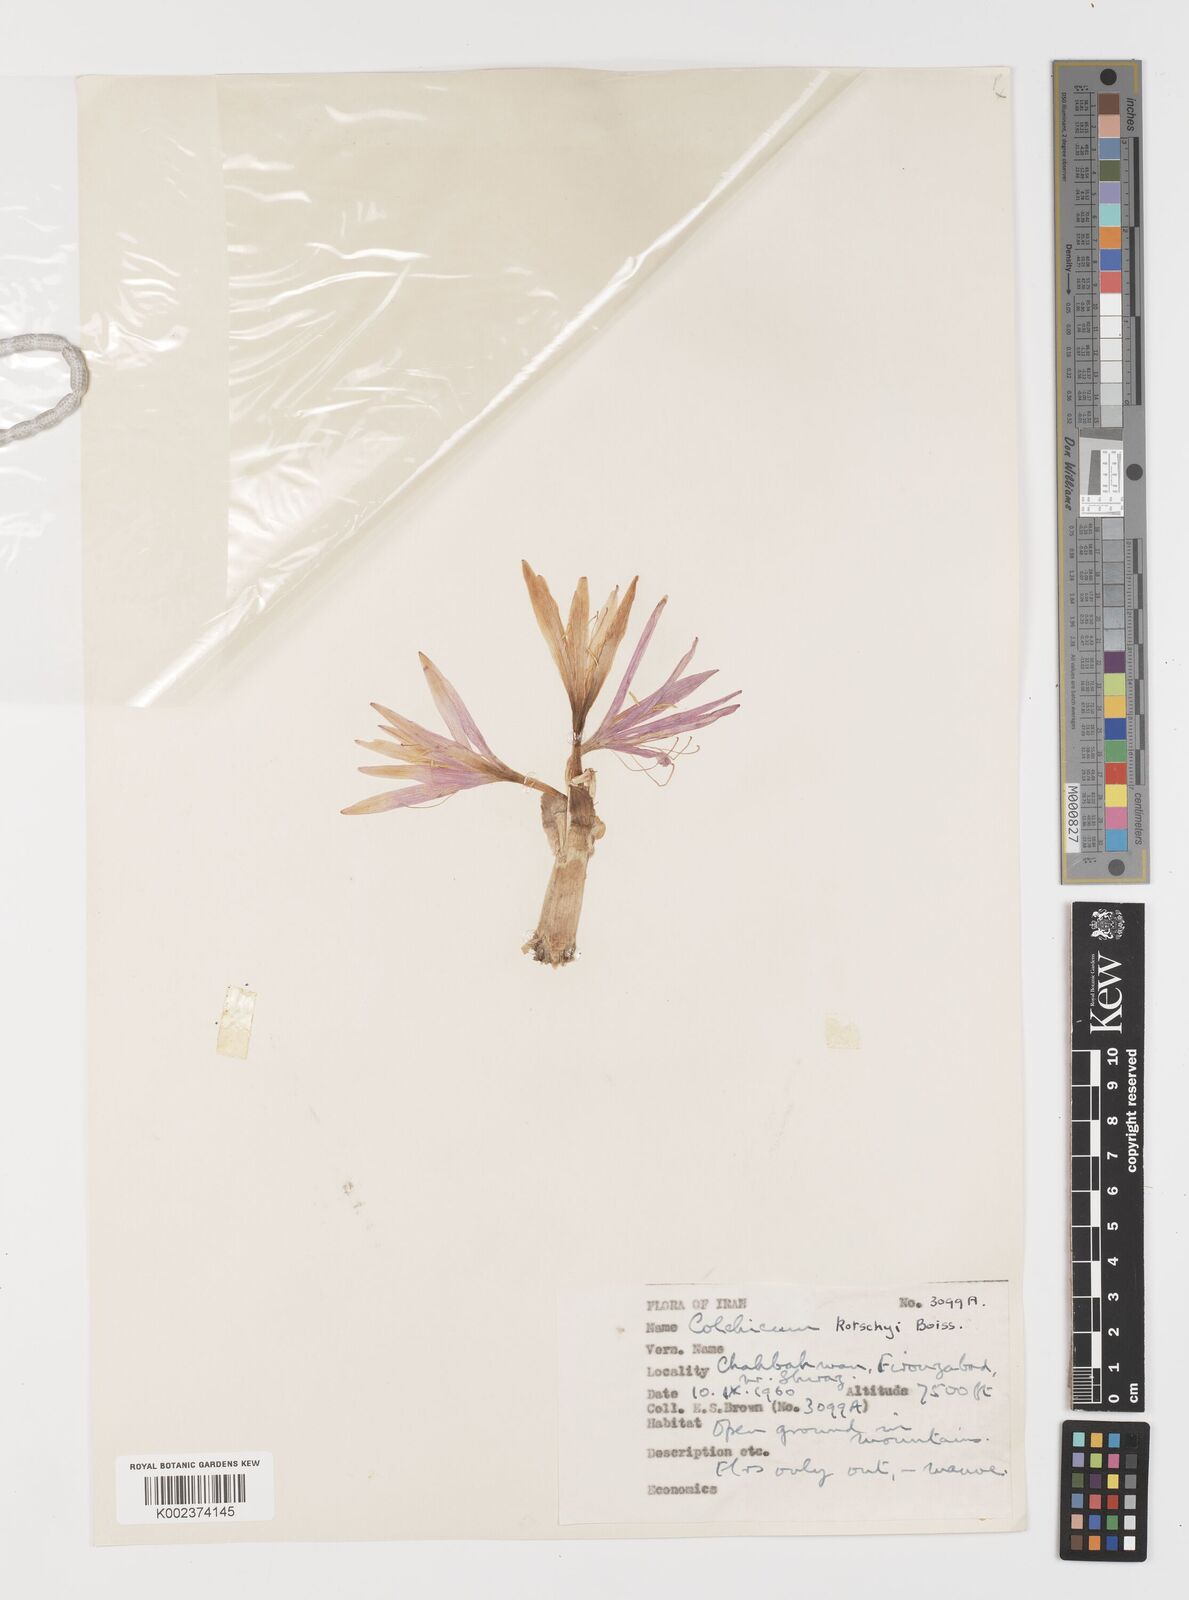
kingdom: Plantae
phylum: Tracheophyta
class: Liliopsida
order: Liliales
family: Colchicaceae
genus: Colchicum
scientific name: Colchicum persicum
